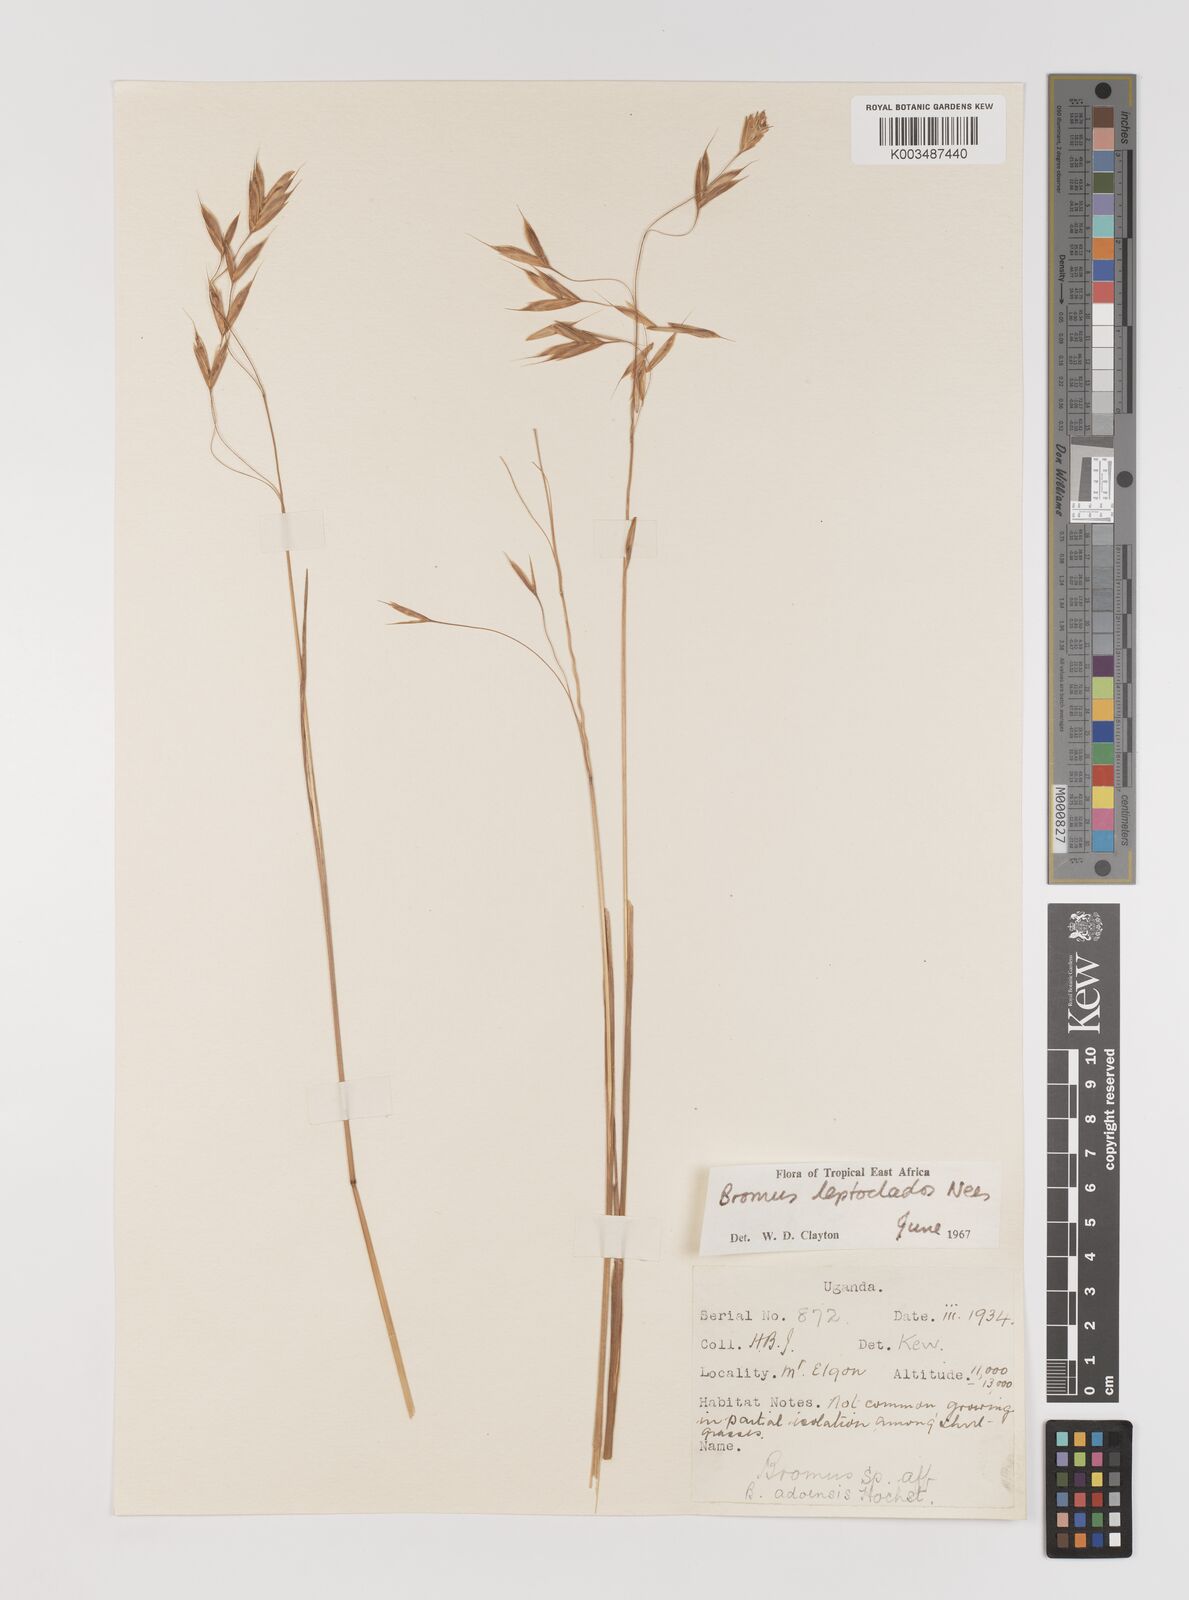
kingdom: Plantae
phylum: Tracheophyta
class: Liliopsida
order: Poales
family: Poaceae
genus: Bromus
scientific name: Bromus leptoclados
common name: Mountain bromegrass
